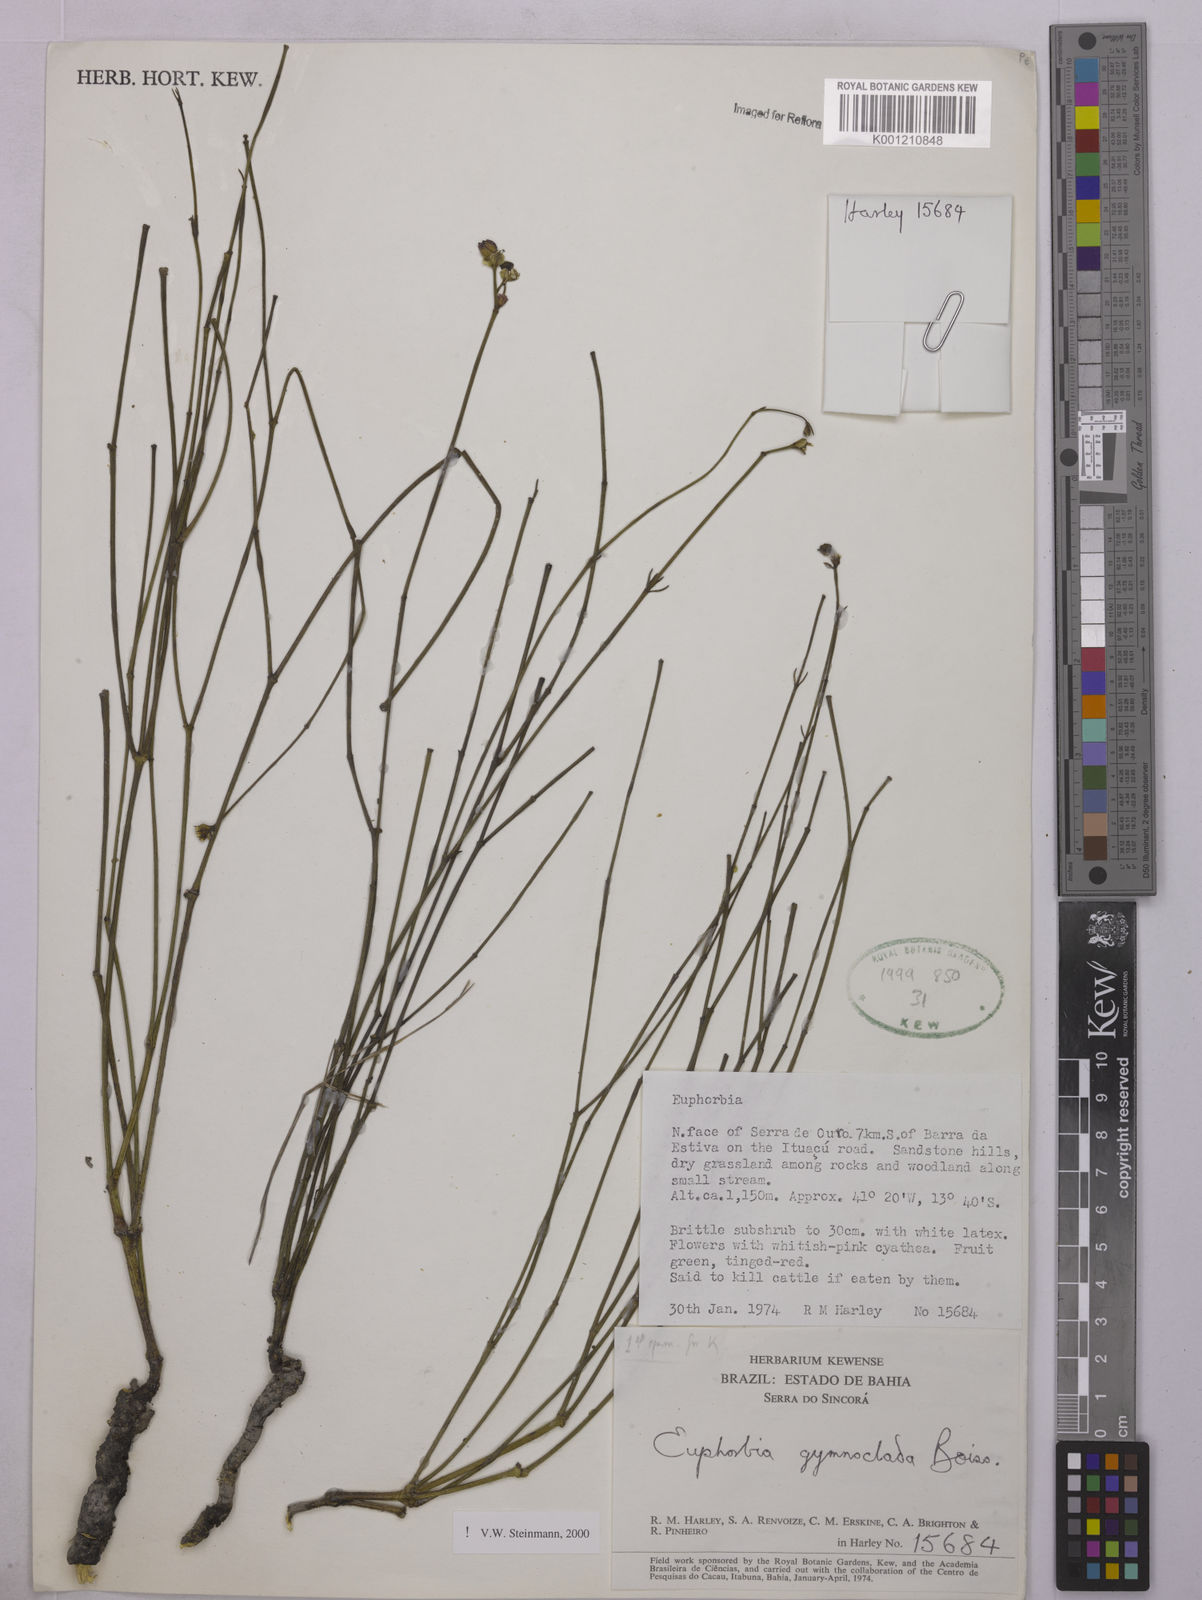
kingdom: Plantae
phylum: Tracheophyta
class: Magnoliopsida
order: Malpighiales
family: Euphorbiaceae
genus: Euphorbia
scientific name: Euphorbia gymnoclada
